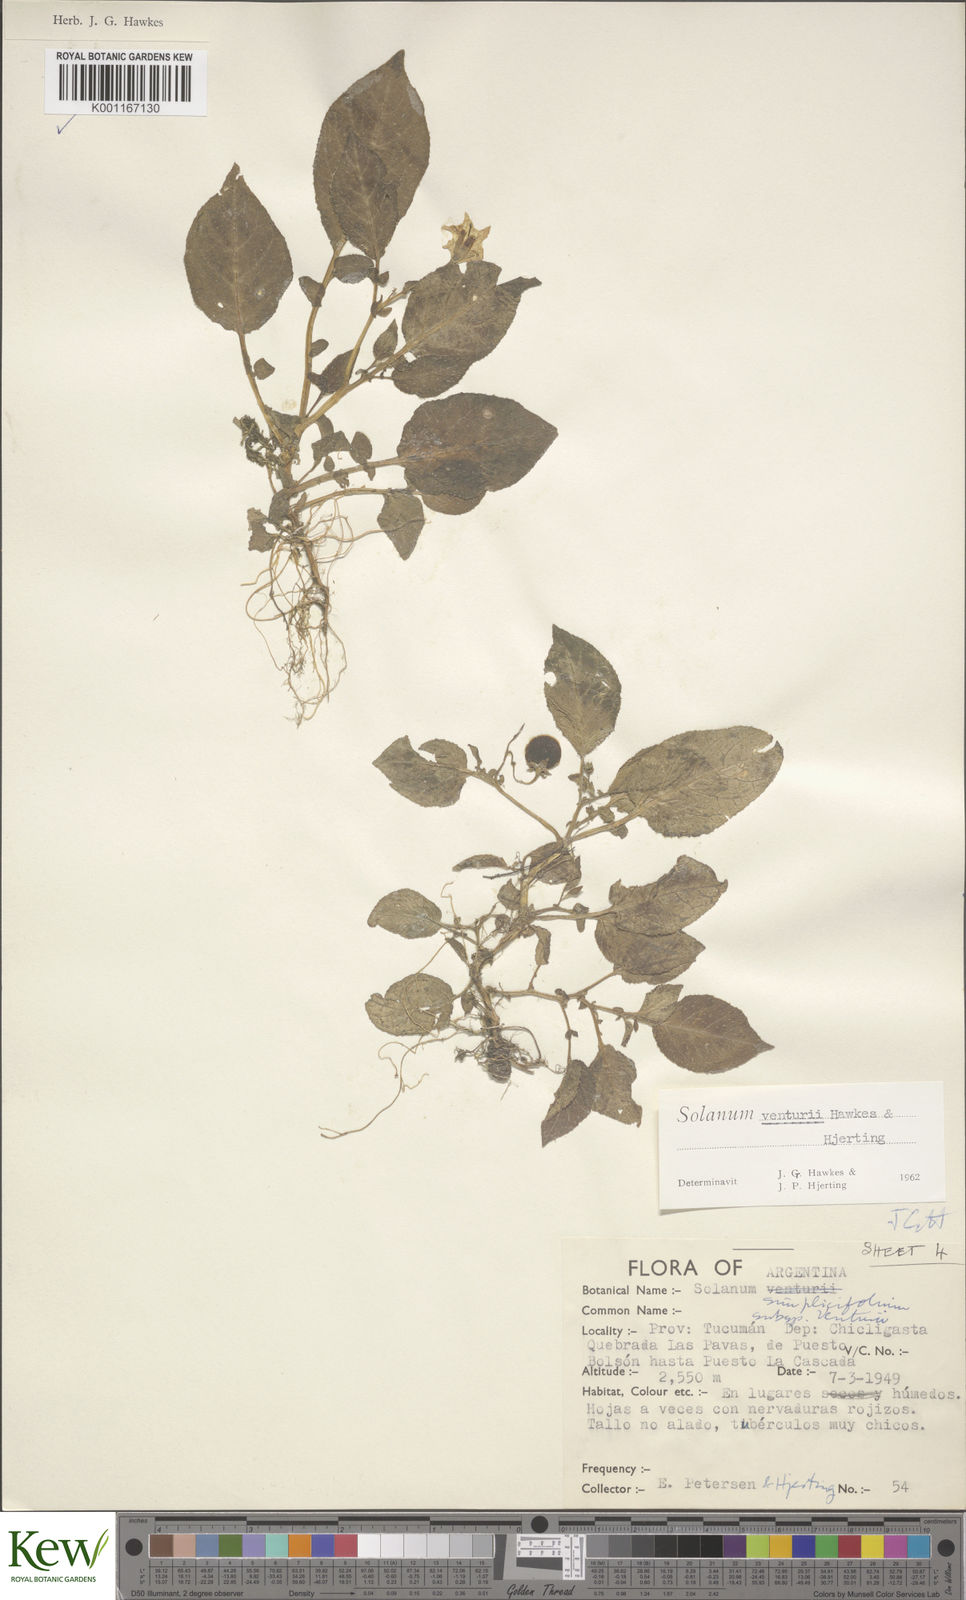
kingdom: Plantae
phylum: Tracheophyta
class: Magnoliopsida
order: Solanales
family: Solanaceae
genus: Solanum
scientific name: Solanum venturii
